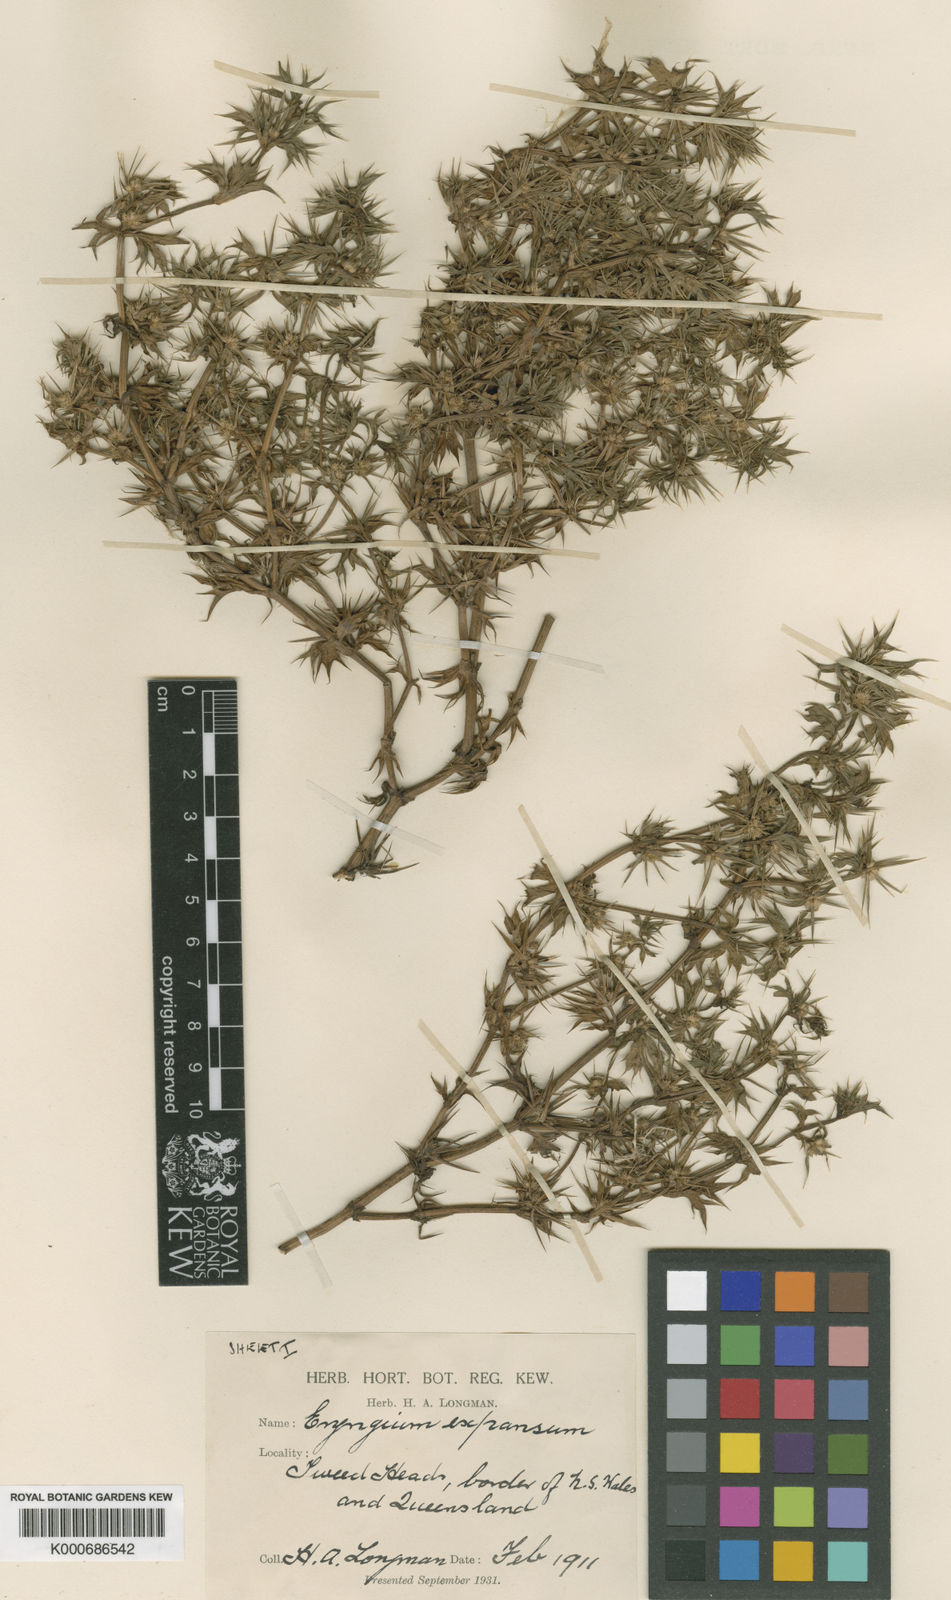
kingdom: Plantae
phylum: Tracheophyta
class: Magnoliopsida
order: Apiales
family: Apiaceae
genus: Eryngium
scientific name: Eryngium expansum
